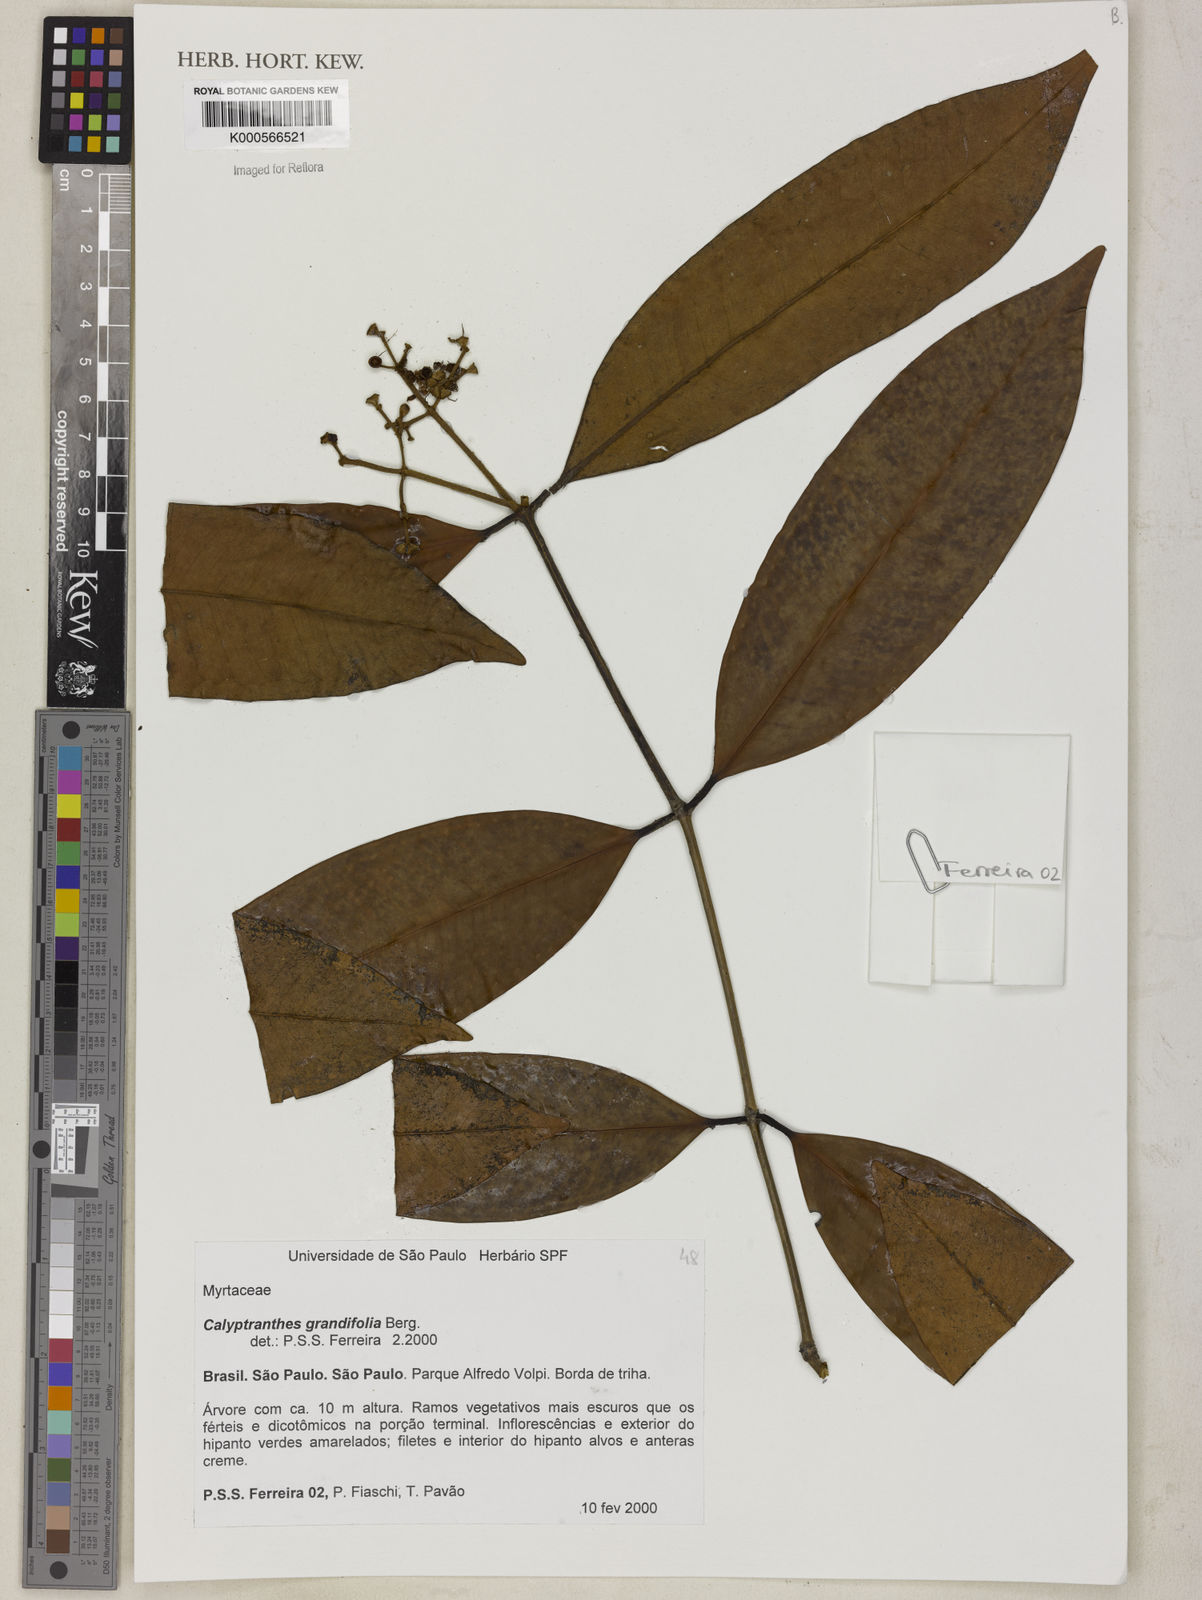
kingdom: Plantae
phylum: Tracheophyta
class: Magnoliopsida
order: Myrtales
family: Myrtaceae
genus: Calyptranthes
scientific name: Calyptranthes grandifolia
